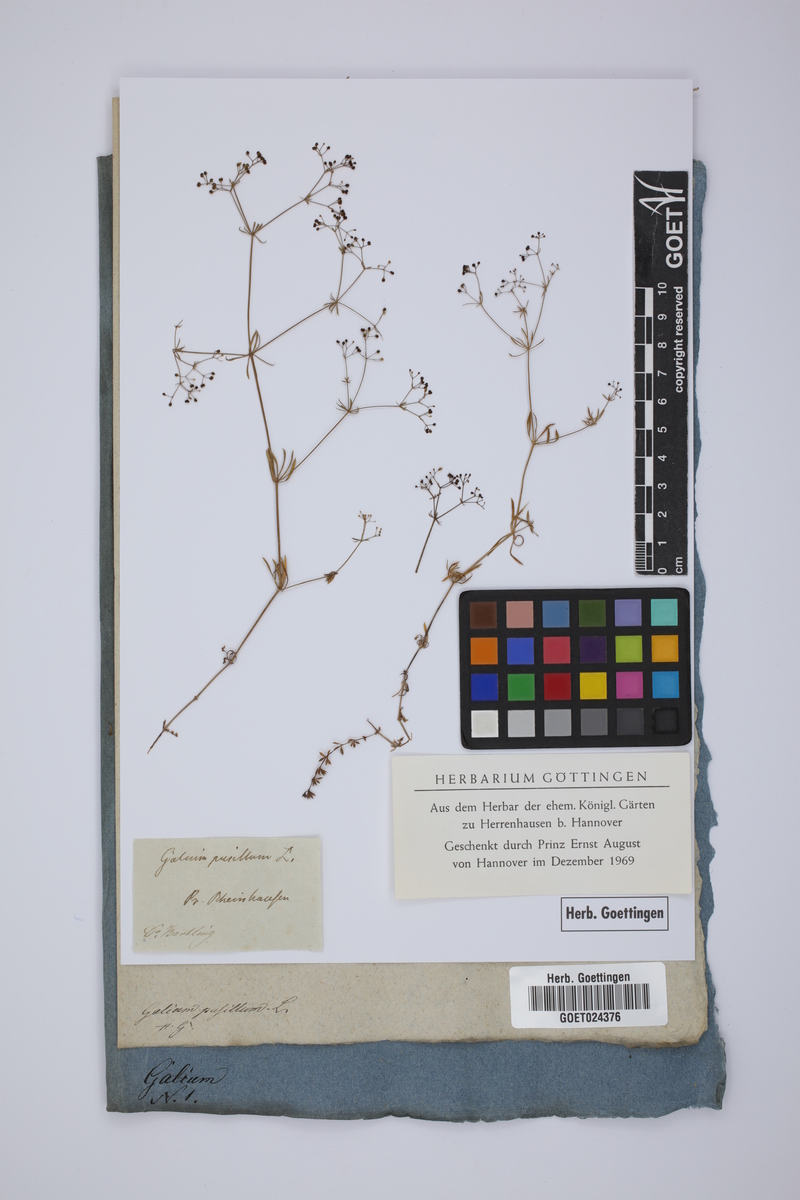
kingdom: Plantae
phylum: Tracheophyta
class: Magnoliopsida
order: Gentianales
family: Rubiaceae
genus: Galium
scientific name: Galium pusillum
